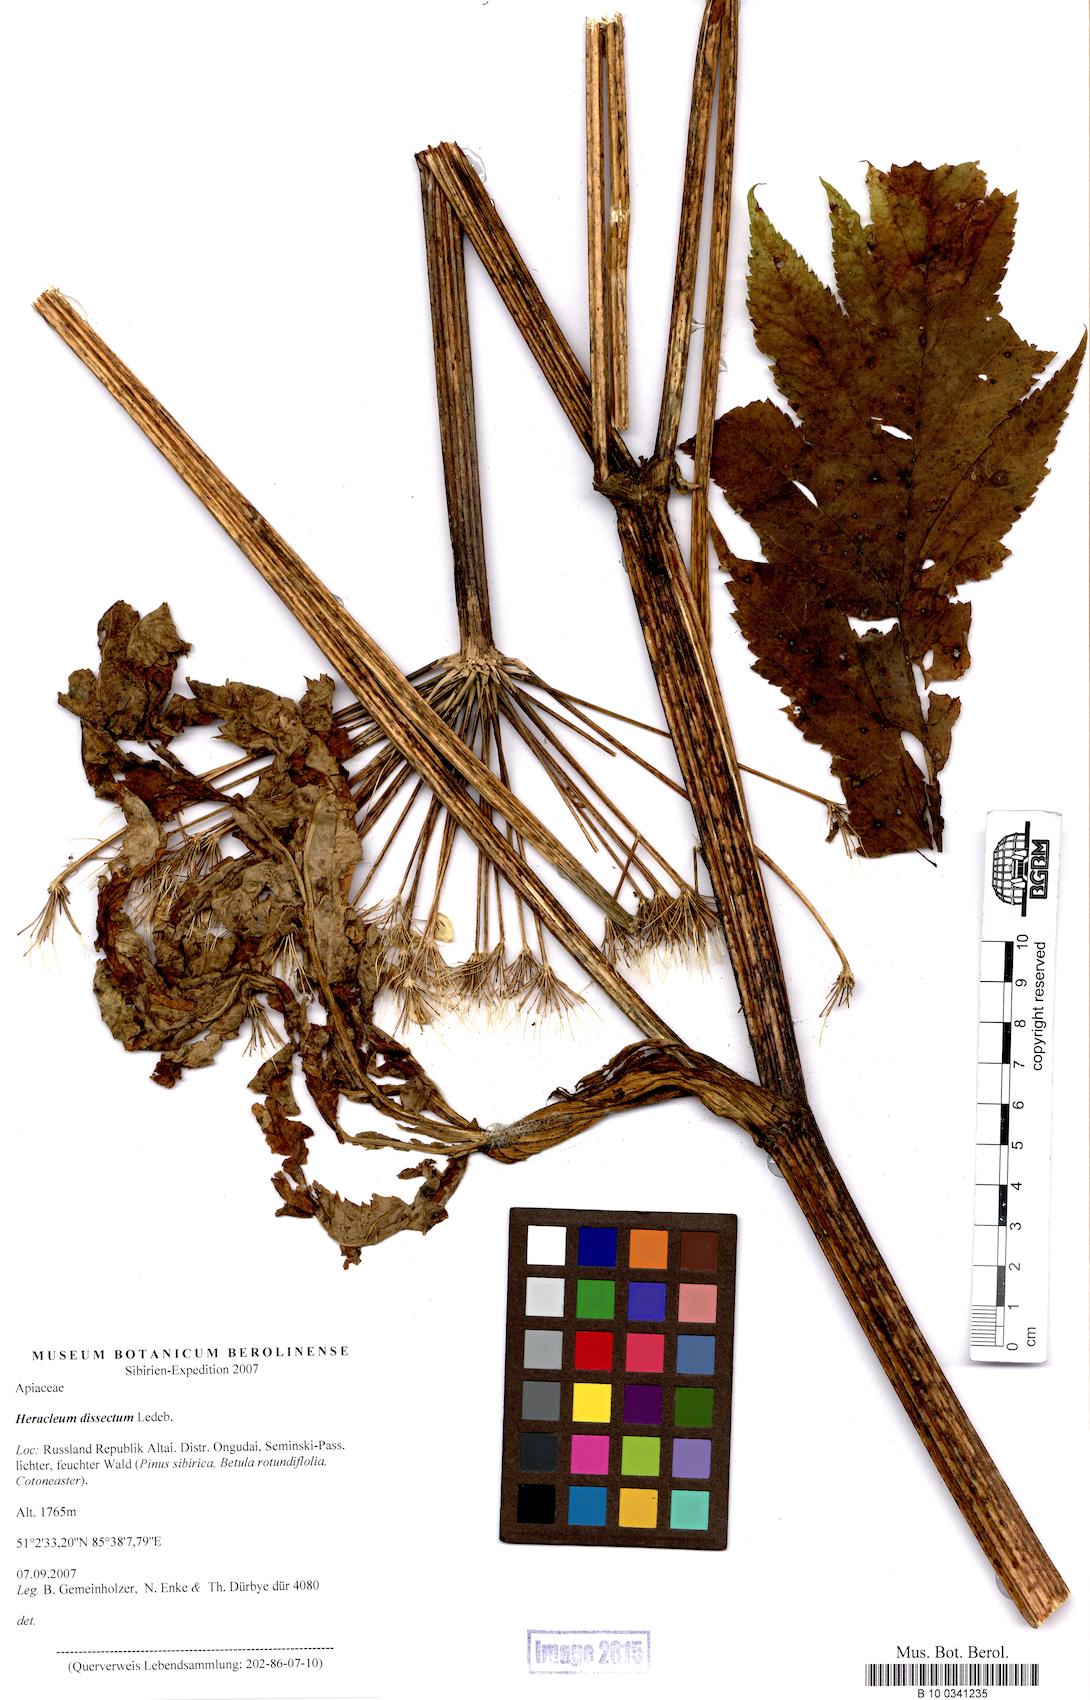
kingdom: Plantae
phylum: Tracheophyta
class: Magnoliopsida
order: Apiales
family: Apiaceae
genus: Heracleum
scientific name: Heracleum dissectum
